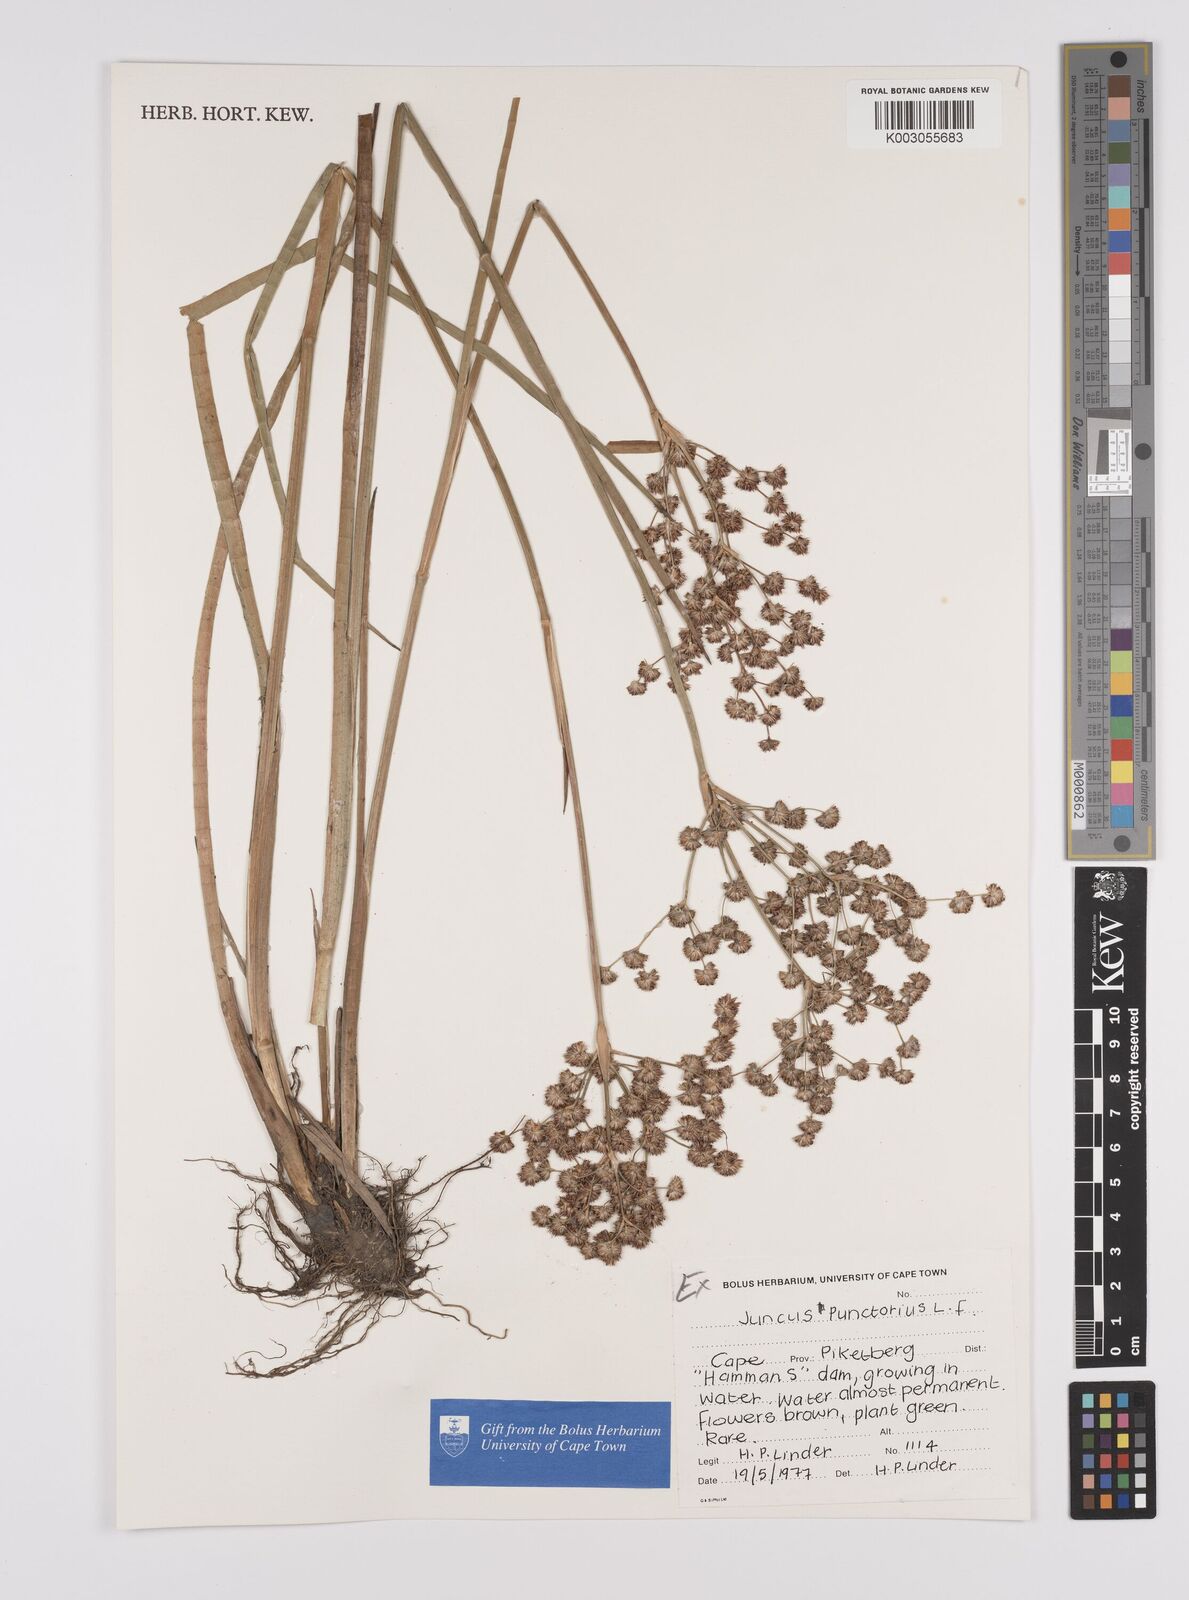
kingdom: Plantae
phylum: Tracheophyta
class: Liliopsida
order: Poales
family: Juncaceae
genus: Juncus
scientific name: Juncus punctorius
